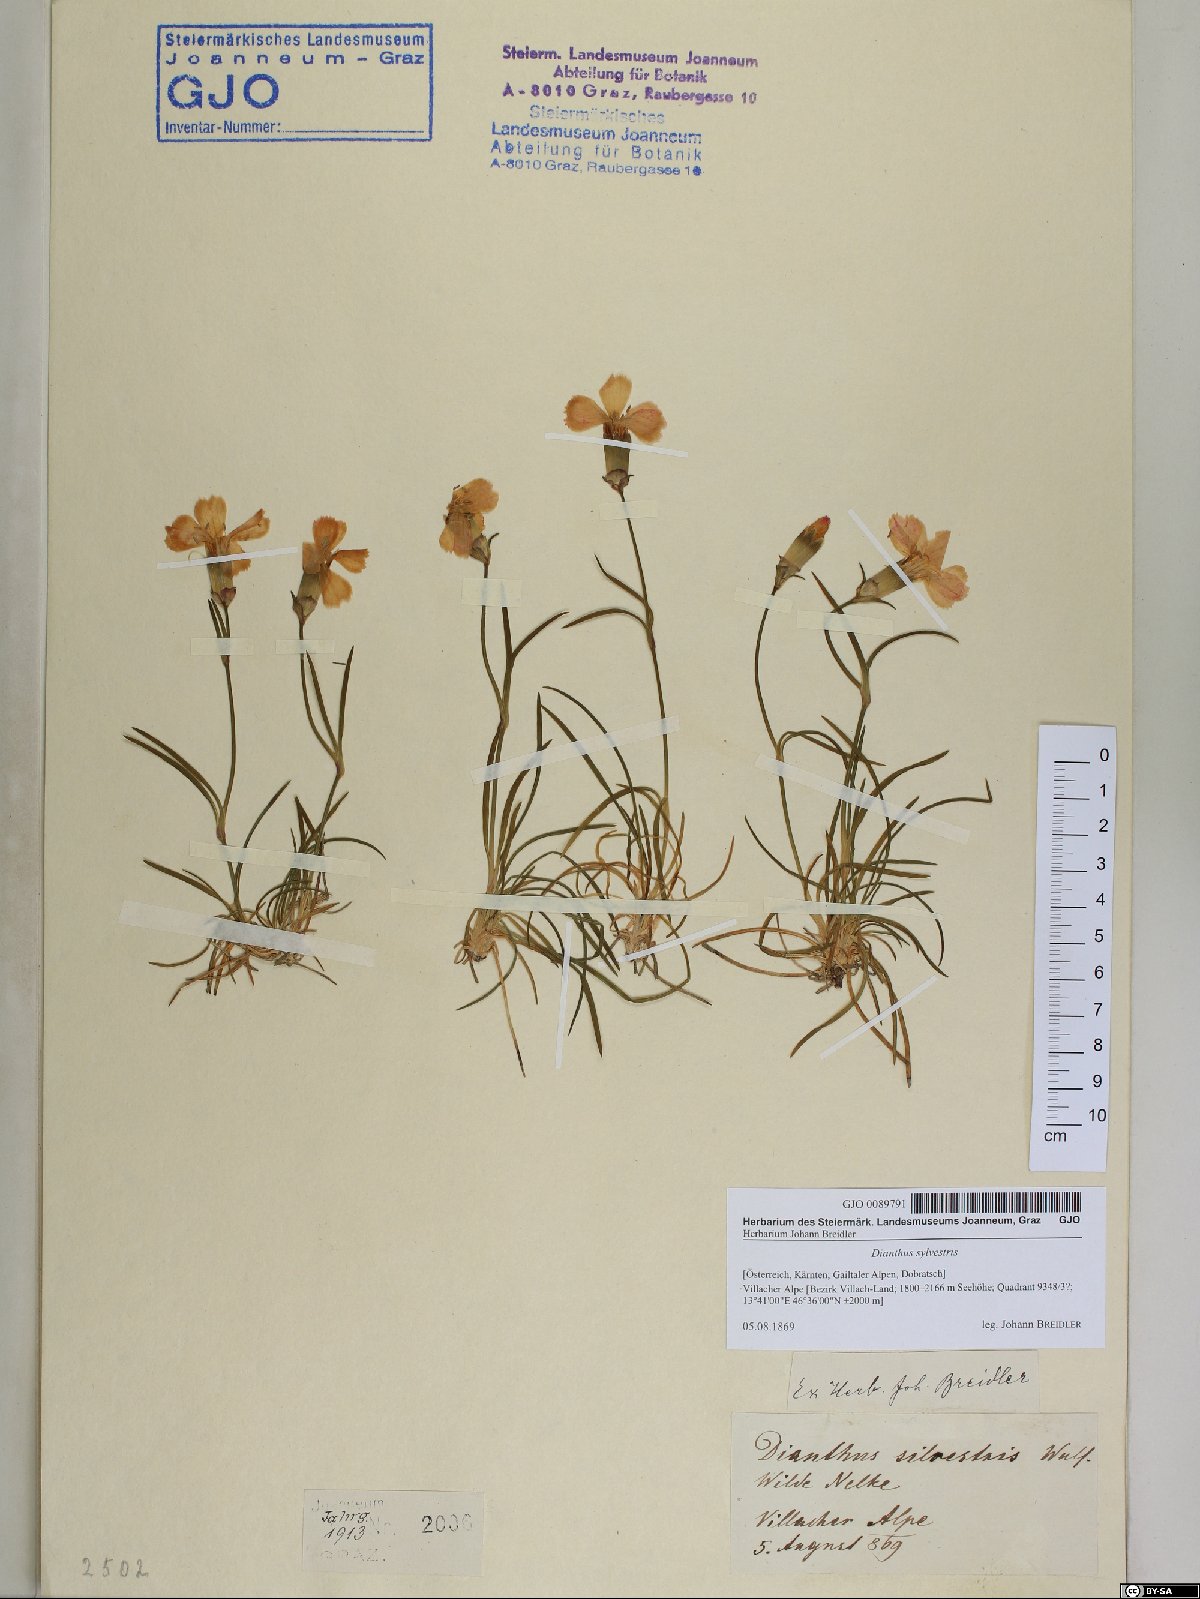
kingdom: Plantae
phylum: Tracheophyta
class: Magnoliopsida
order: Caryophyllales
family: Caryophyllaceae
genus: Dianthus
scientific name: Dianthus sylvestris
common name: Wood pink
